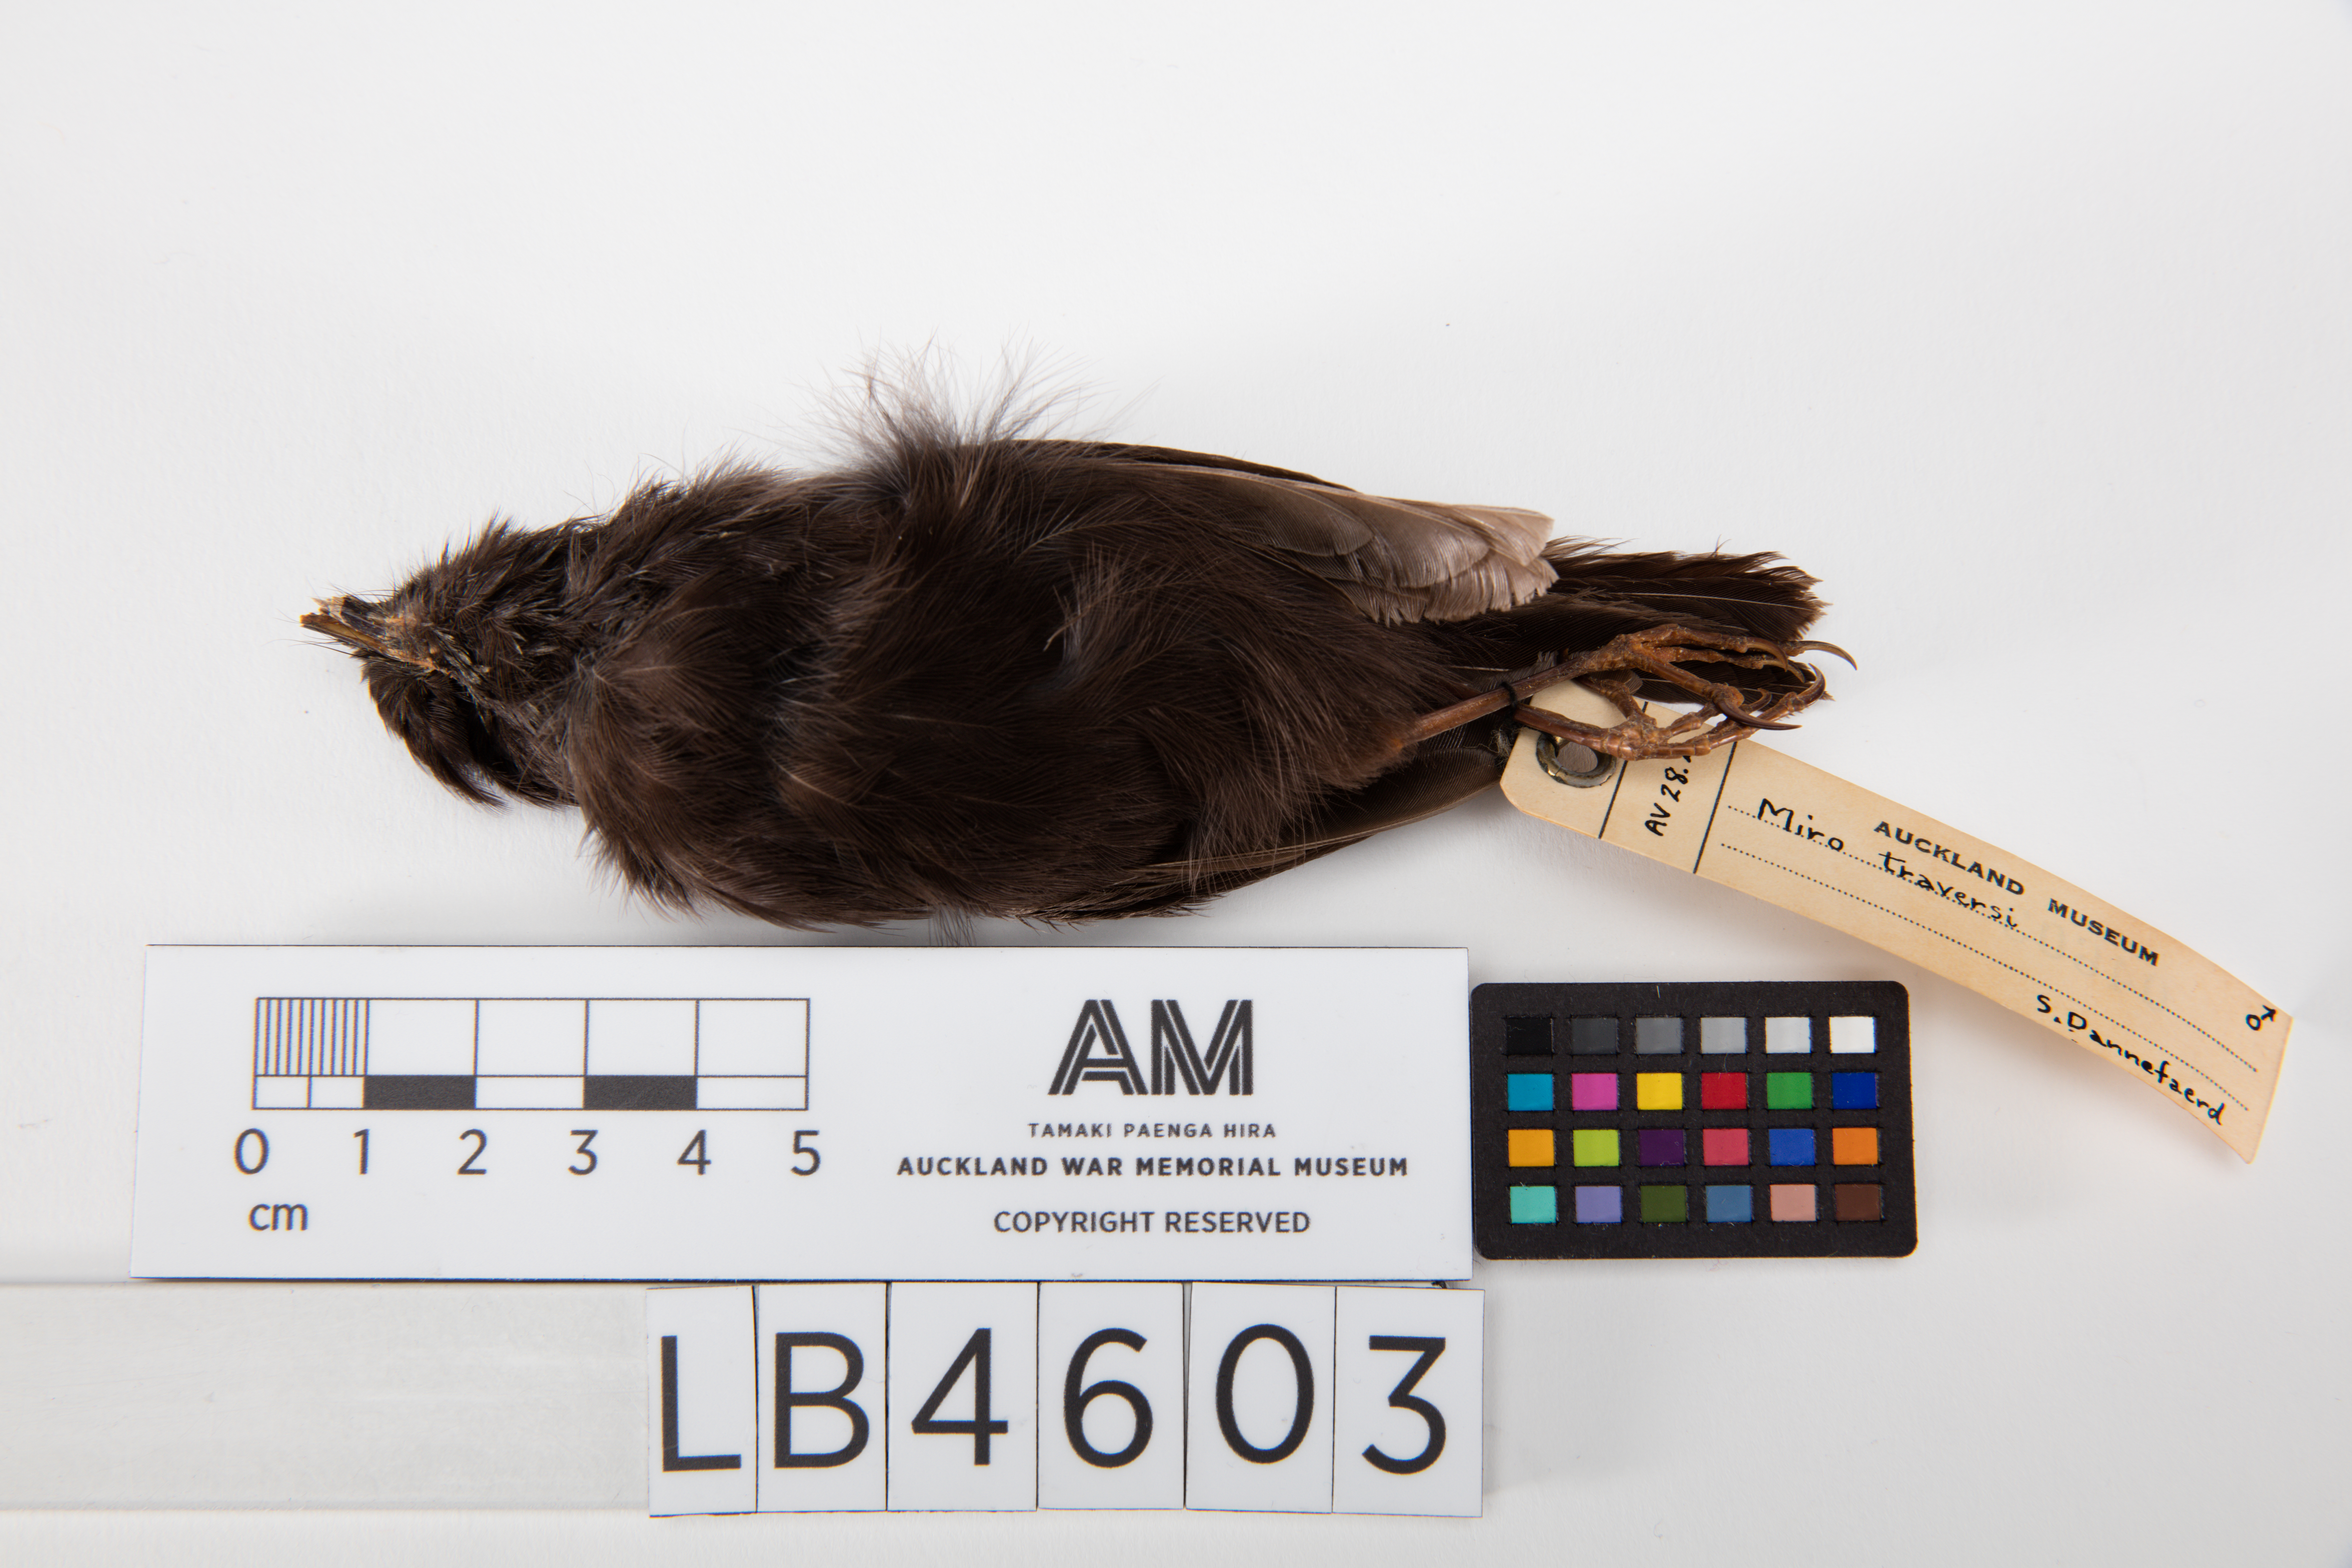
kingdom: Animalia
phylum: Chordata
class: Aves
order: Passeriformes
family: Petroicidae
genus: Petroica
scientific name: Petroica traversi
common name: Black robin
